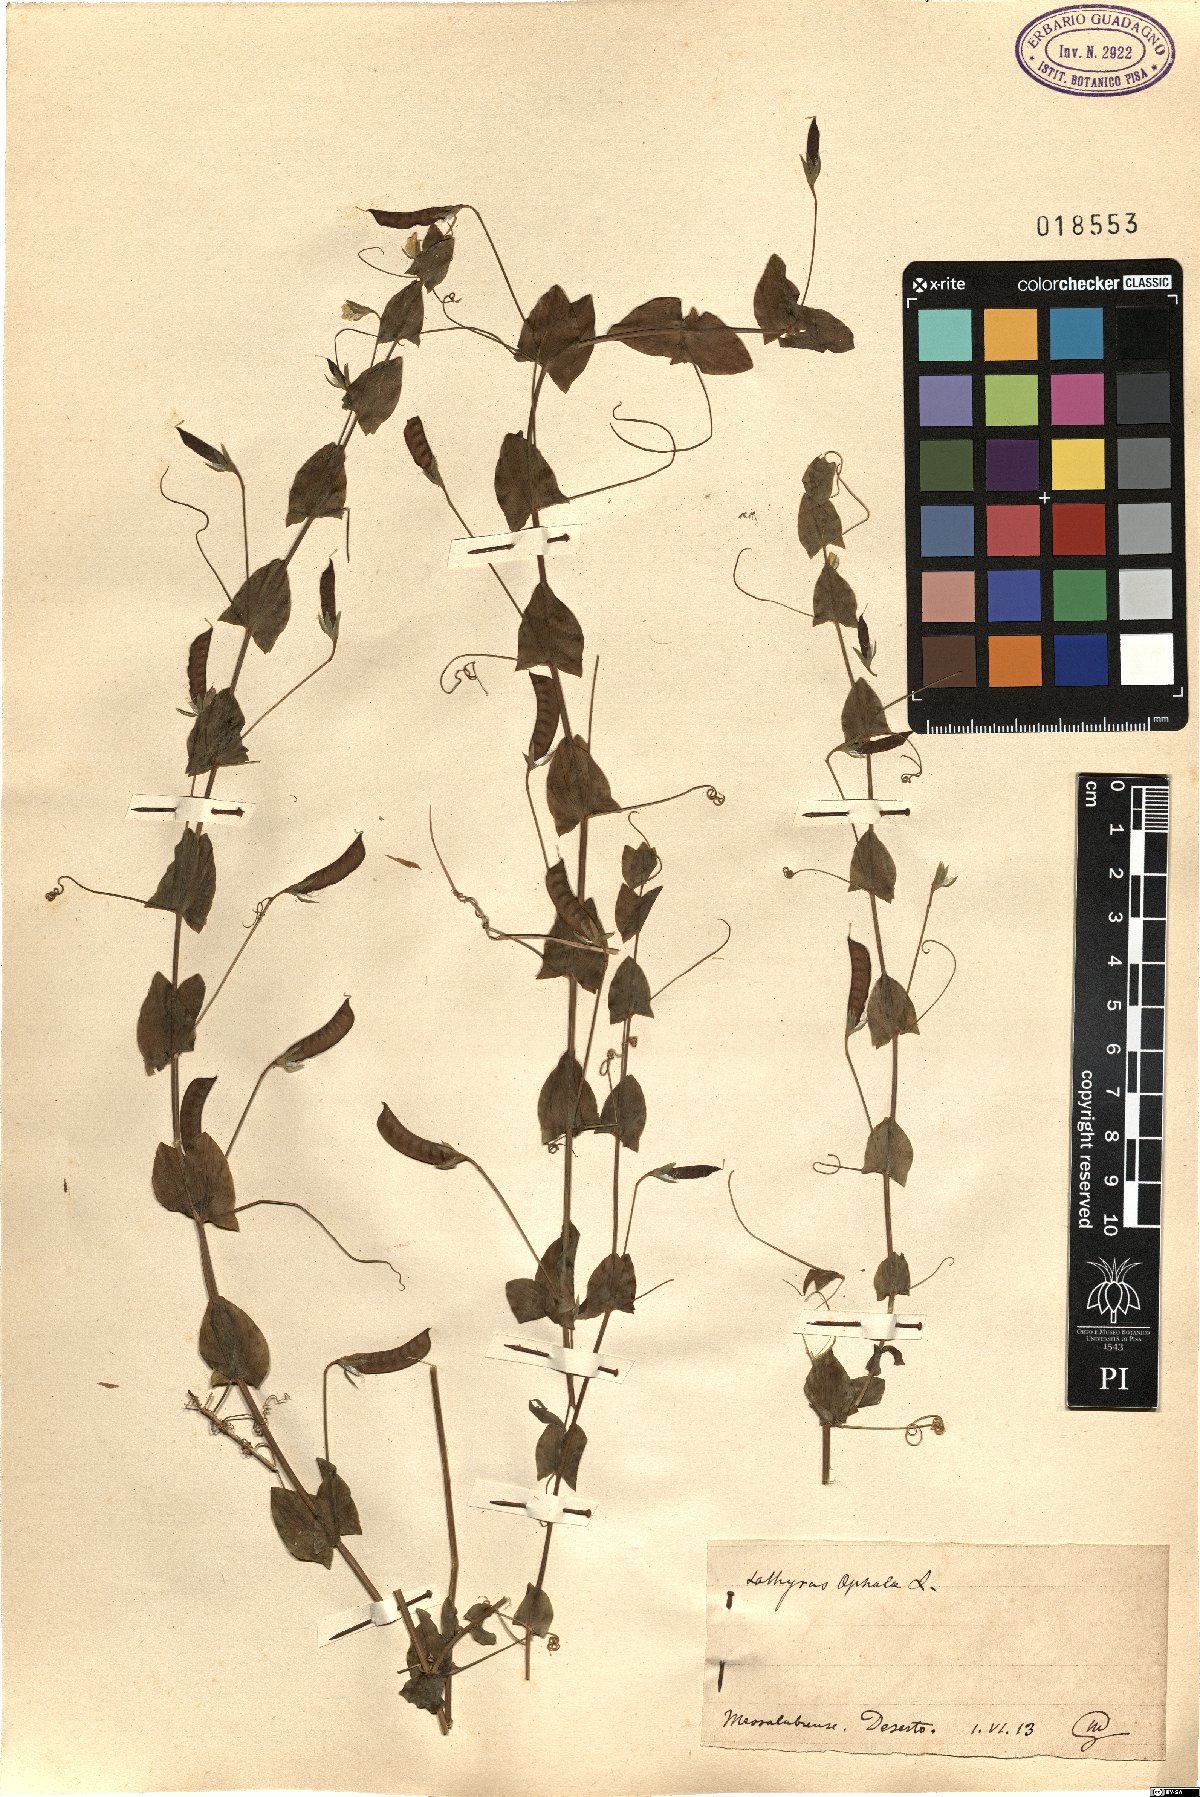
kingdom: Plantae
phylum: Tracheophyta
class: Magnoliopsida
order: Fabales
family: Fabaceae
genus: Lathyrus
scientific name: Lathyrus aphaca
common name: Yellow vetchling
